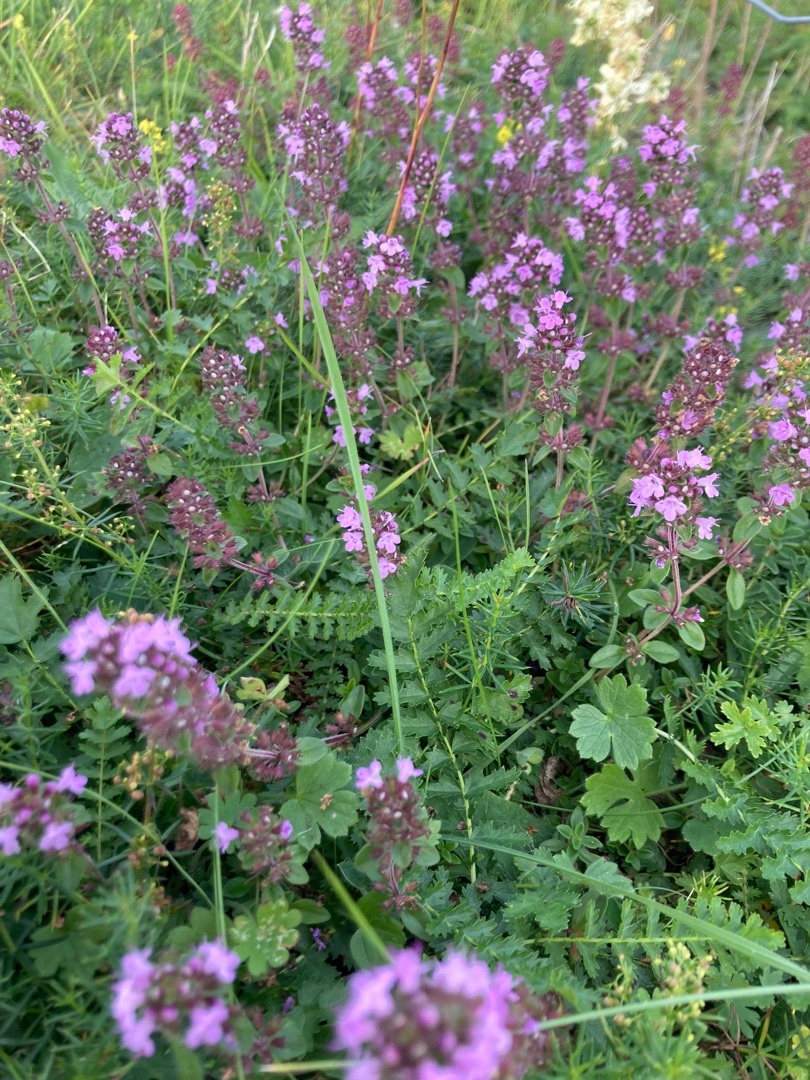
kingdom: Plantae
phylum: Tracheophyta
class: Magnoliopsida
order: Lamiales
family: Lamiaceae
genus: Thymus
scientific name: Thymus pulegioides
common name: Bredbladet timian
